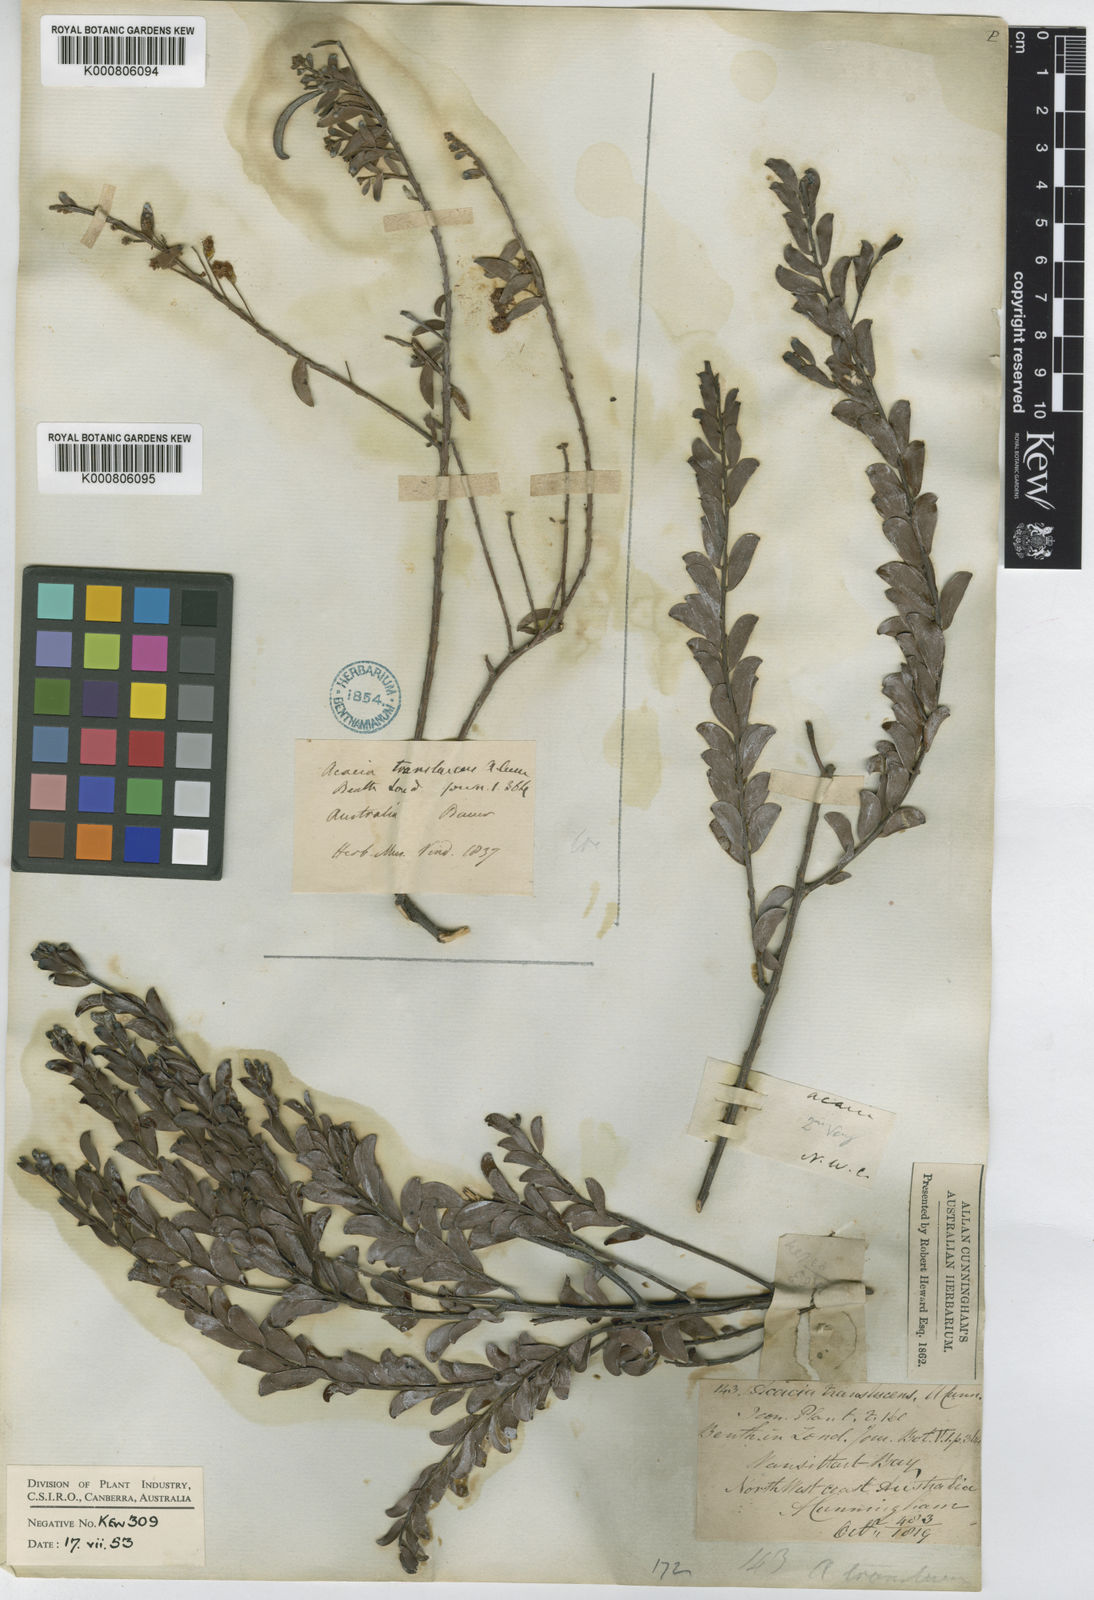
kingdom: Plantae
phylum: Tracheophyta
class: Magnoliopsida
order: Fabales
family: Fabaceae
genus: Acacia
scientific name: Acacia
